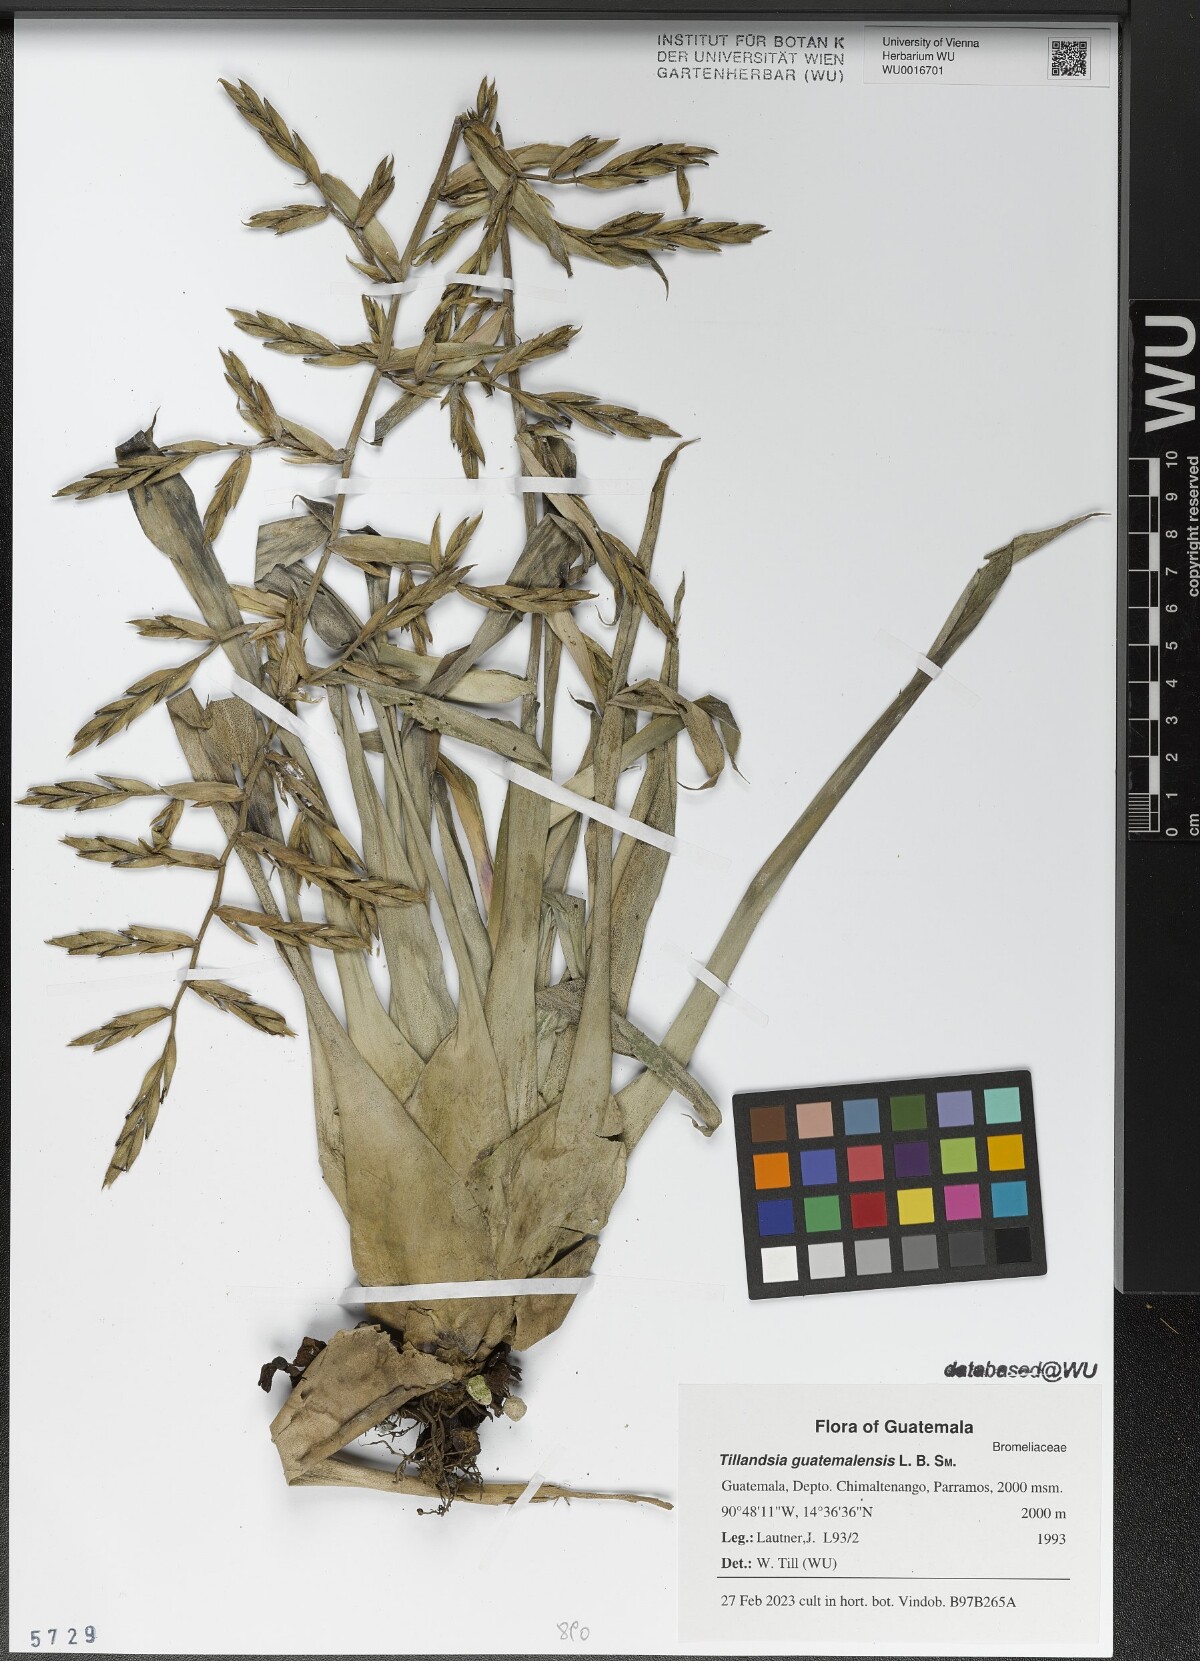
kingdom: Plantae
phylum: Tracheophyta
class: Liliopsida
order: Poales
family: Bromeliaceae
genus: Tillandsia
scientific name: Tillandsia guatemalensis
